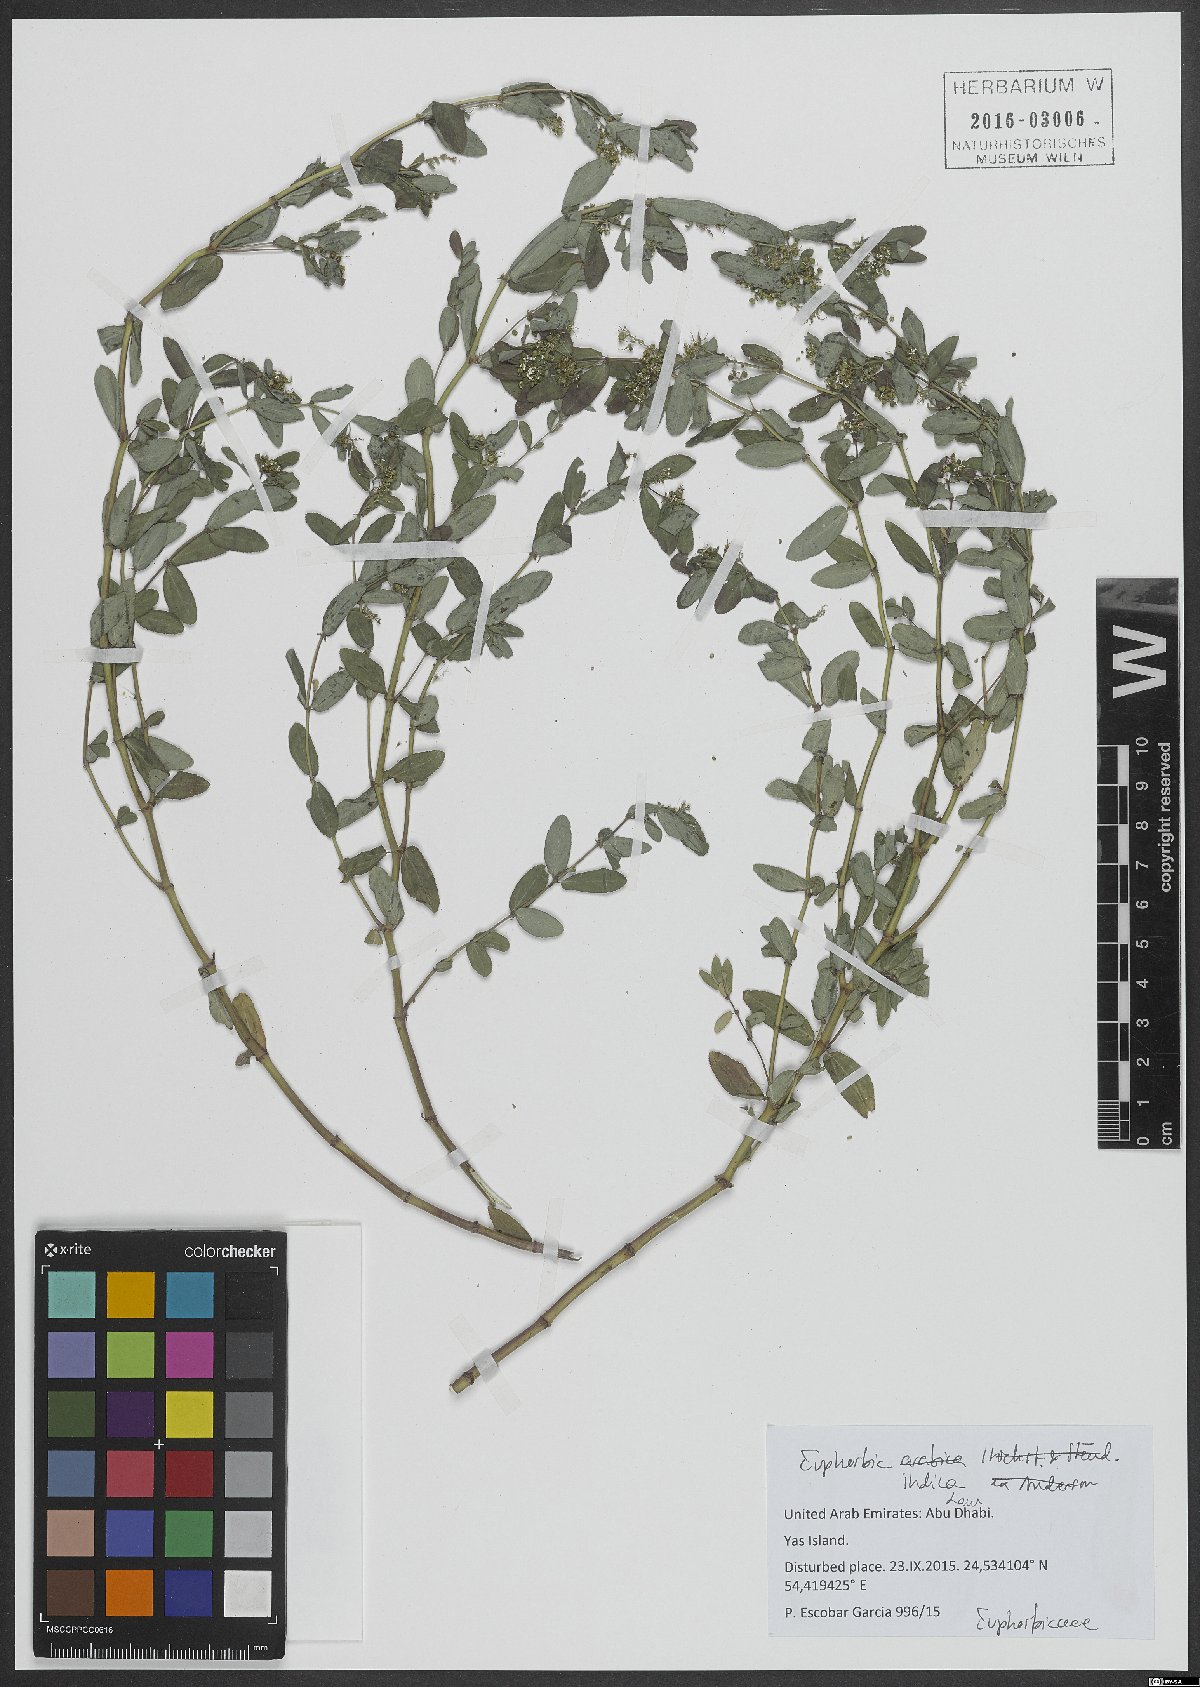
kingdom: Plantae
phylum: Tracheophyta
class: Magnoliopsida
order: Malpighiales
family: Euphorbiaceae
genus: Euphorbia
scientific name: Euphorbia indica
